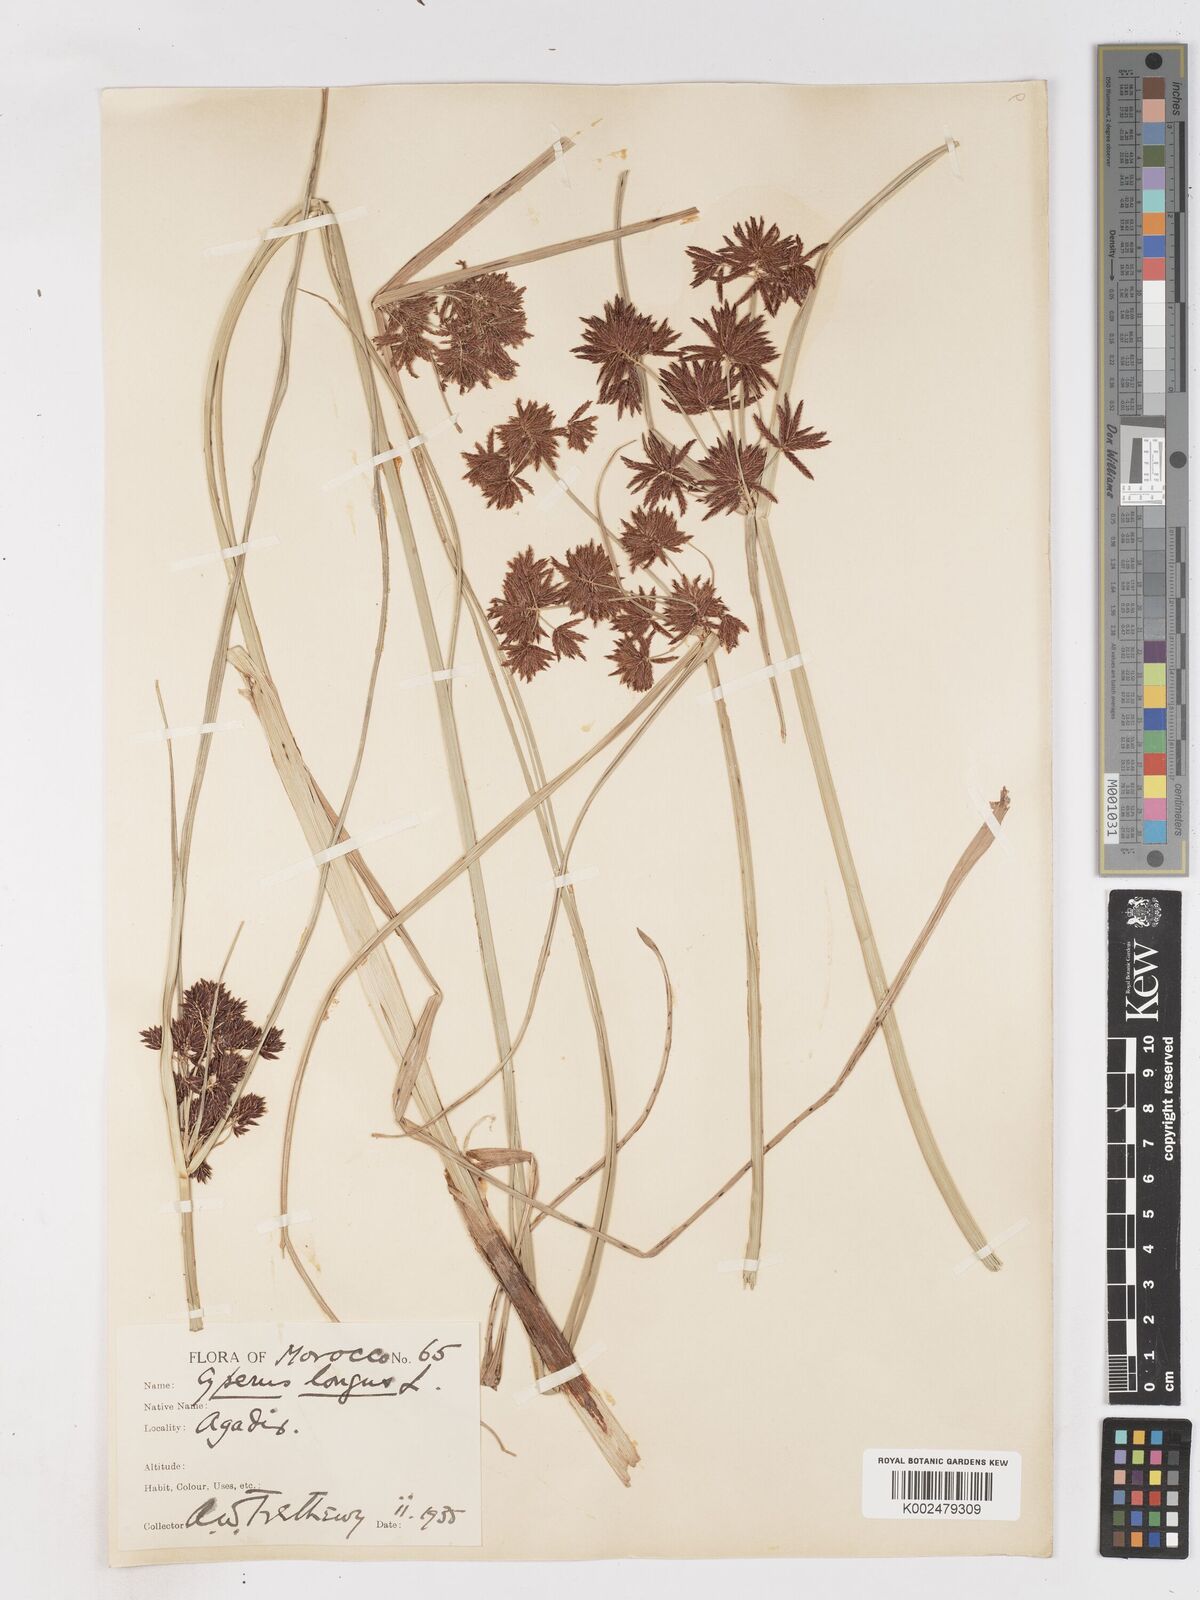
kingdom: Plantae
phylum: Tracheophyta
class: Liliopsida
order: Poales
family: Cyperaceae
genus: Cyperus
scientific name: Cyperus longus
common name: Galingale
